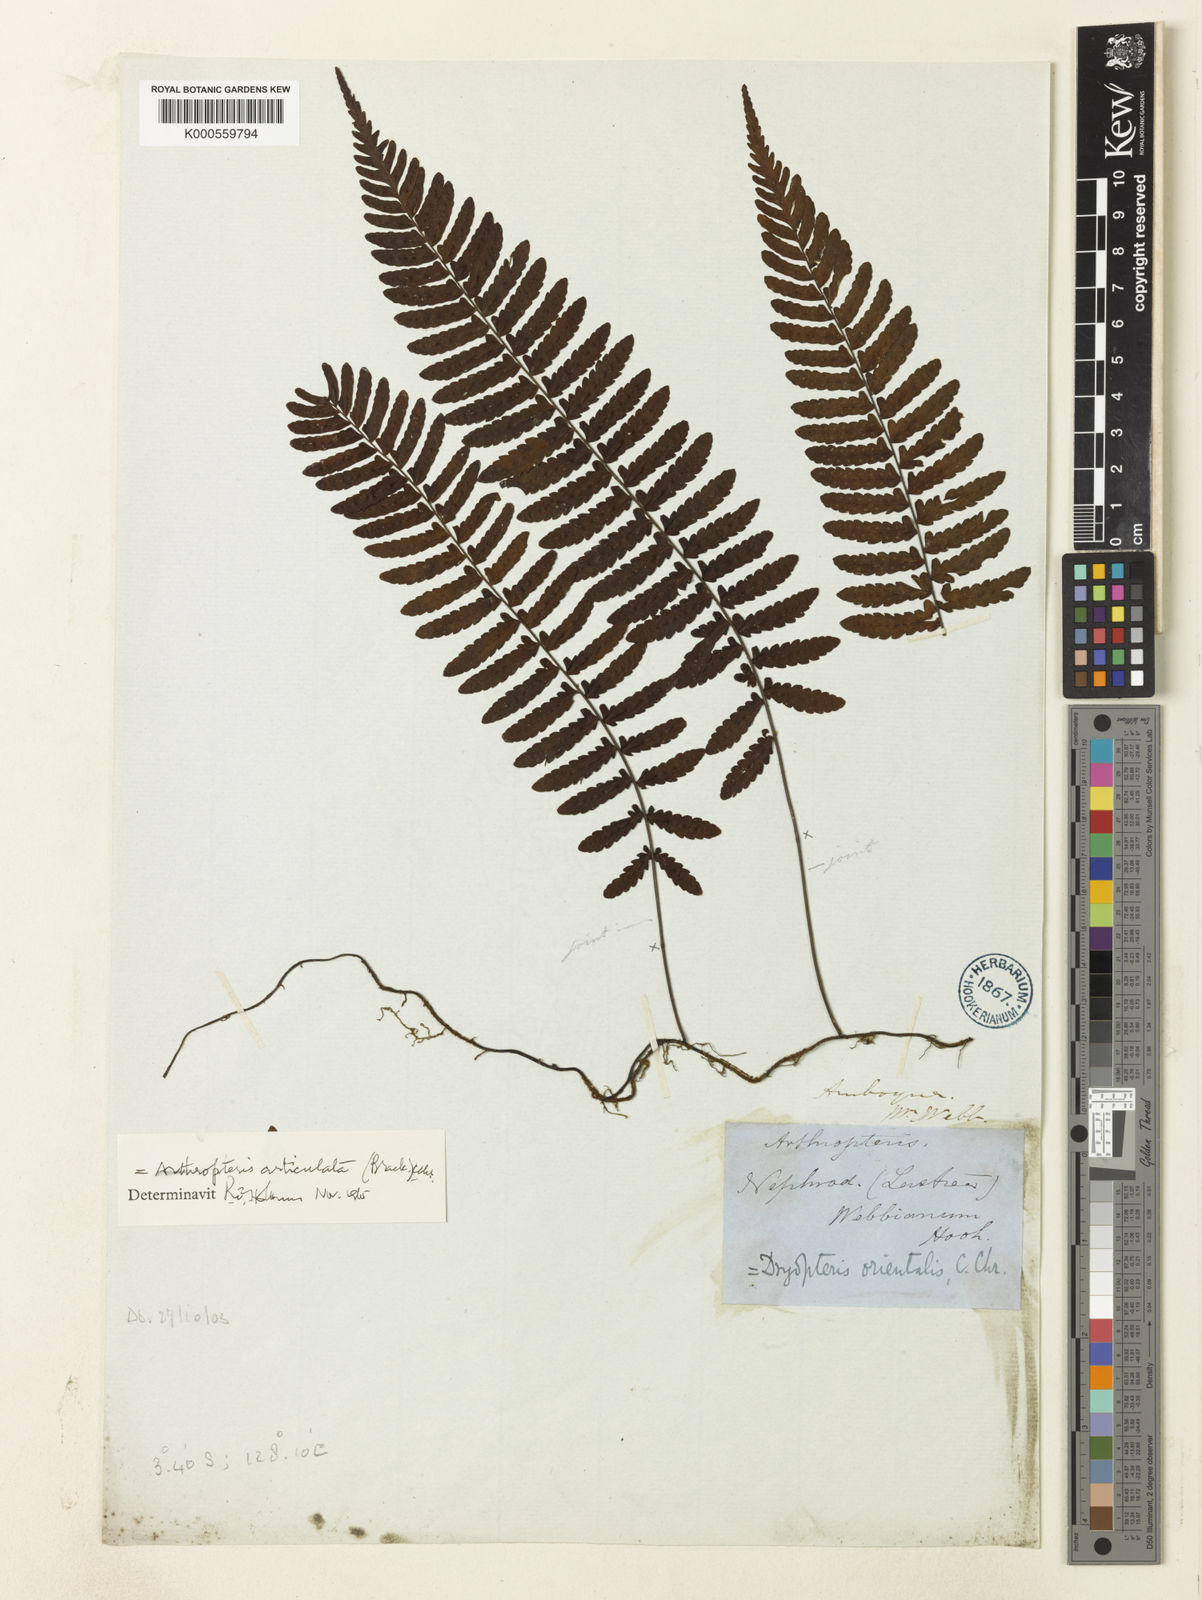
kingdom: Plantae
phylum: Tracheophyta
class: Polypodiopsida
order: Polypodiales
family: Tectariaceae
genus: Arthropteris
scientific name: Arthropteris articulata
